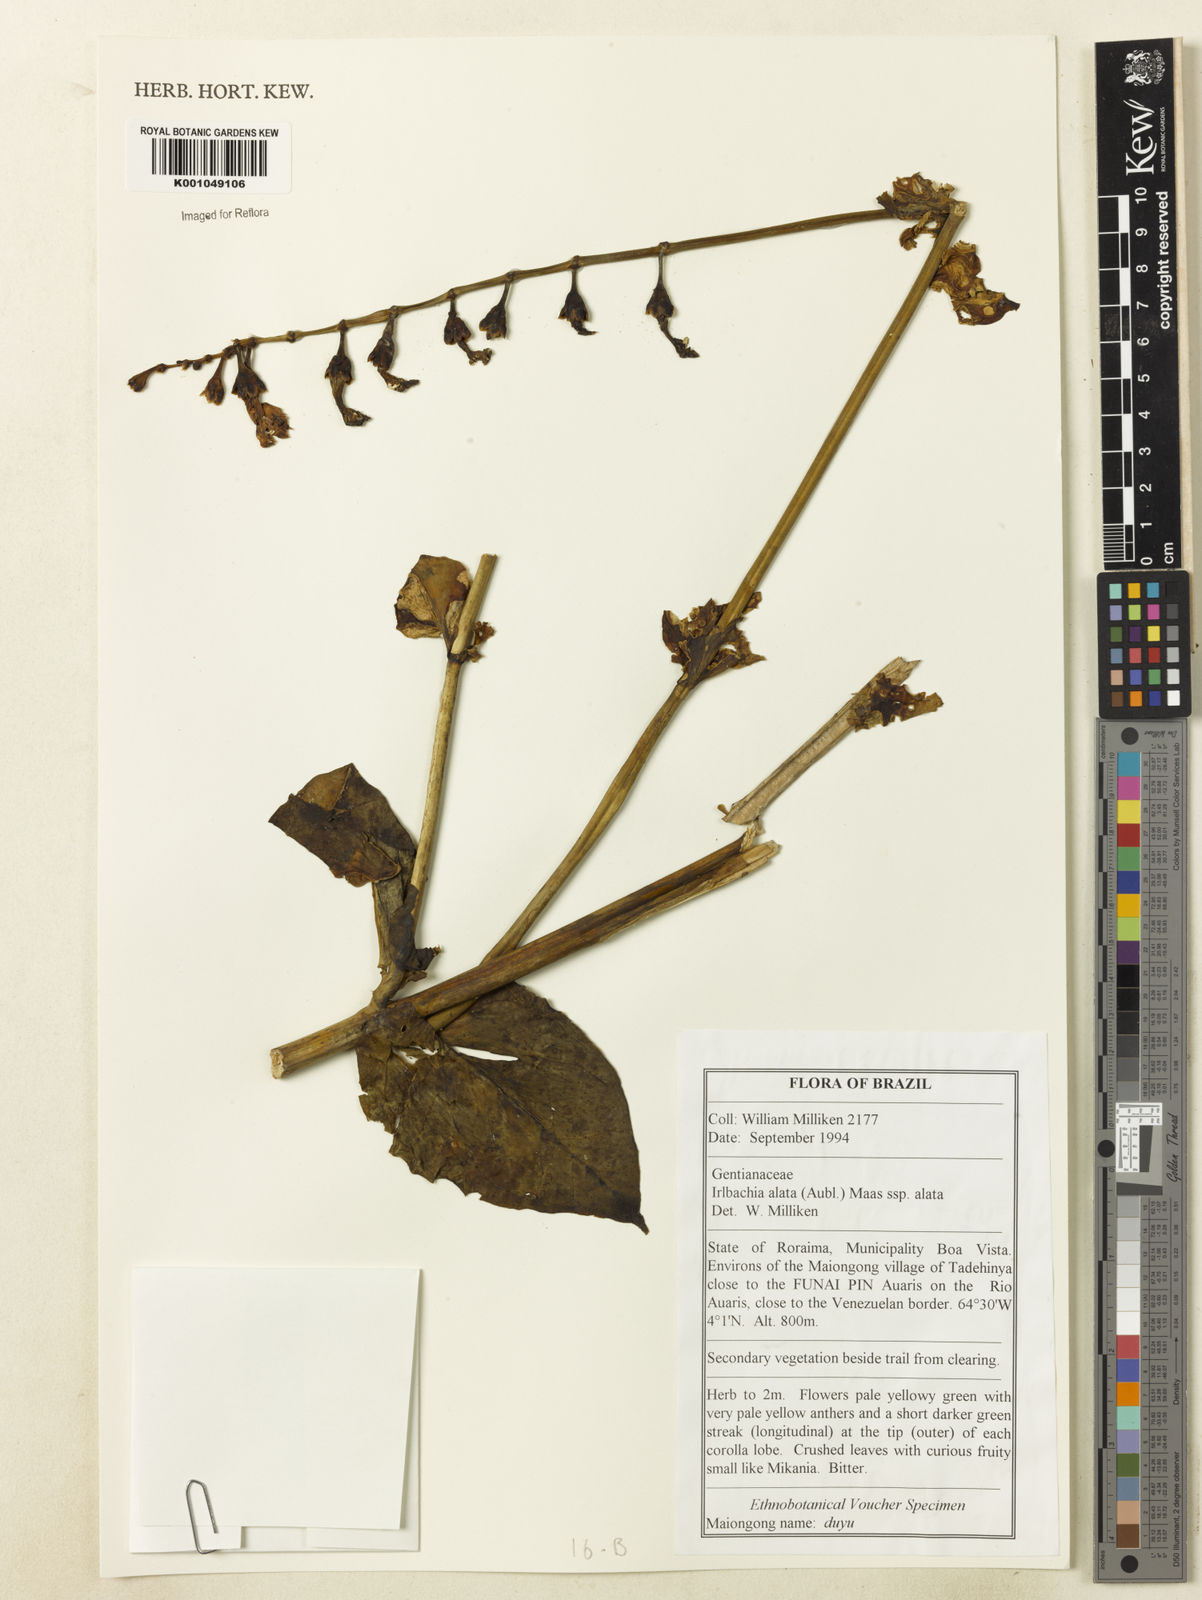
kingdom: Plantae
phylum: Tracheophyta
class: Magnoliopsida
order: Gentianales
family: Gentianaceae
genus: Chelonanthus
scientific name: Chelonanthus alatus
